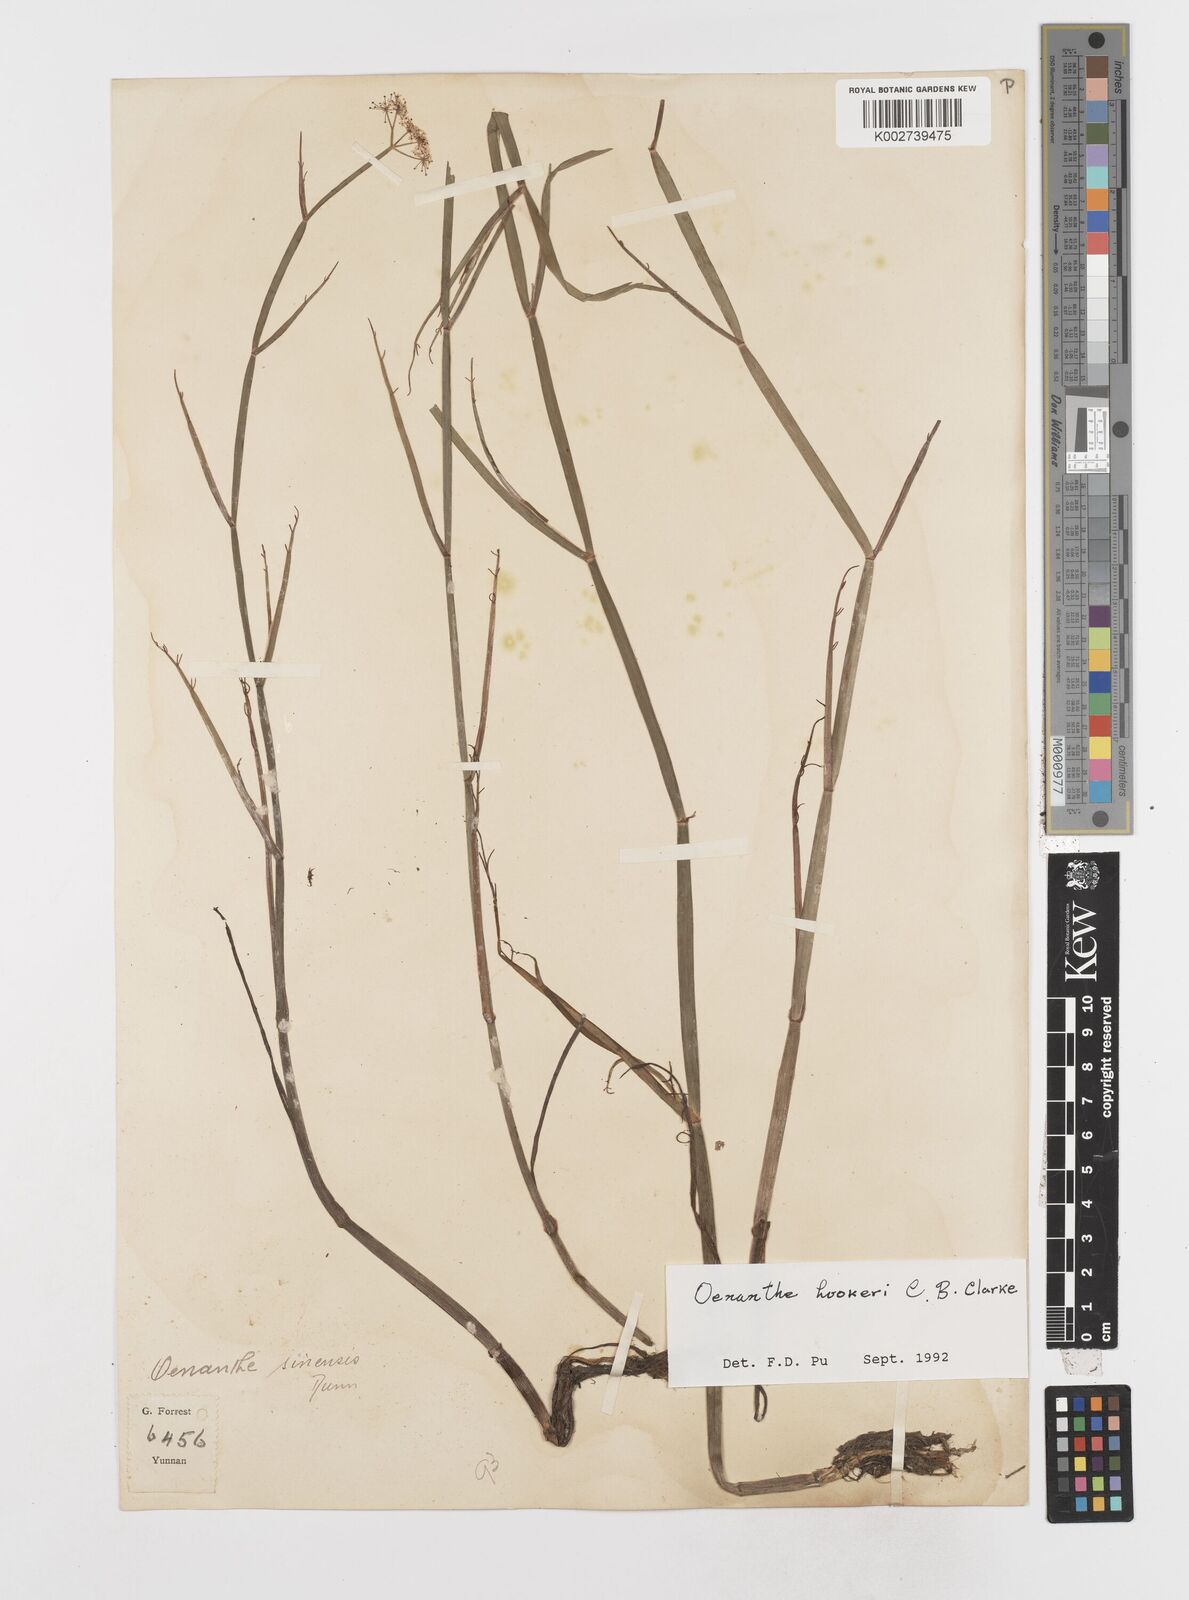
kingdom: Plantae
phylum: Tracheophyta
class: Magnoliopsida
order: Apiales
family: Apiaceae
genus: Oenanthe
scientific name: Oenanthe hookeri
